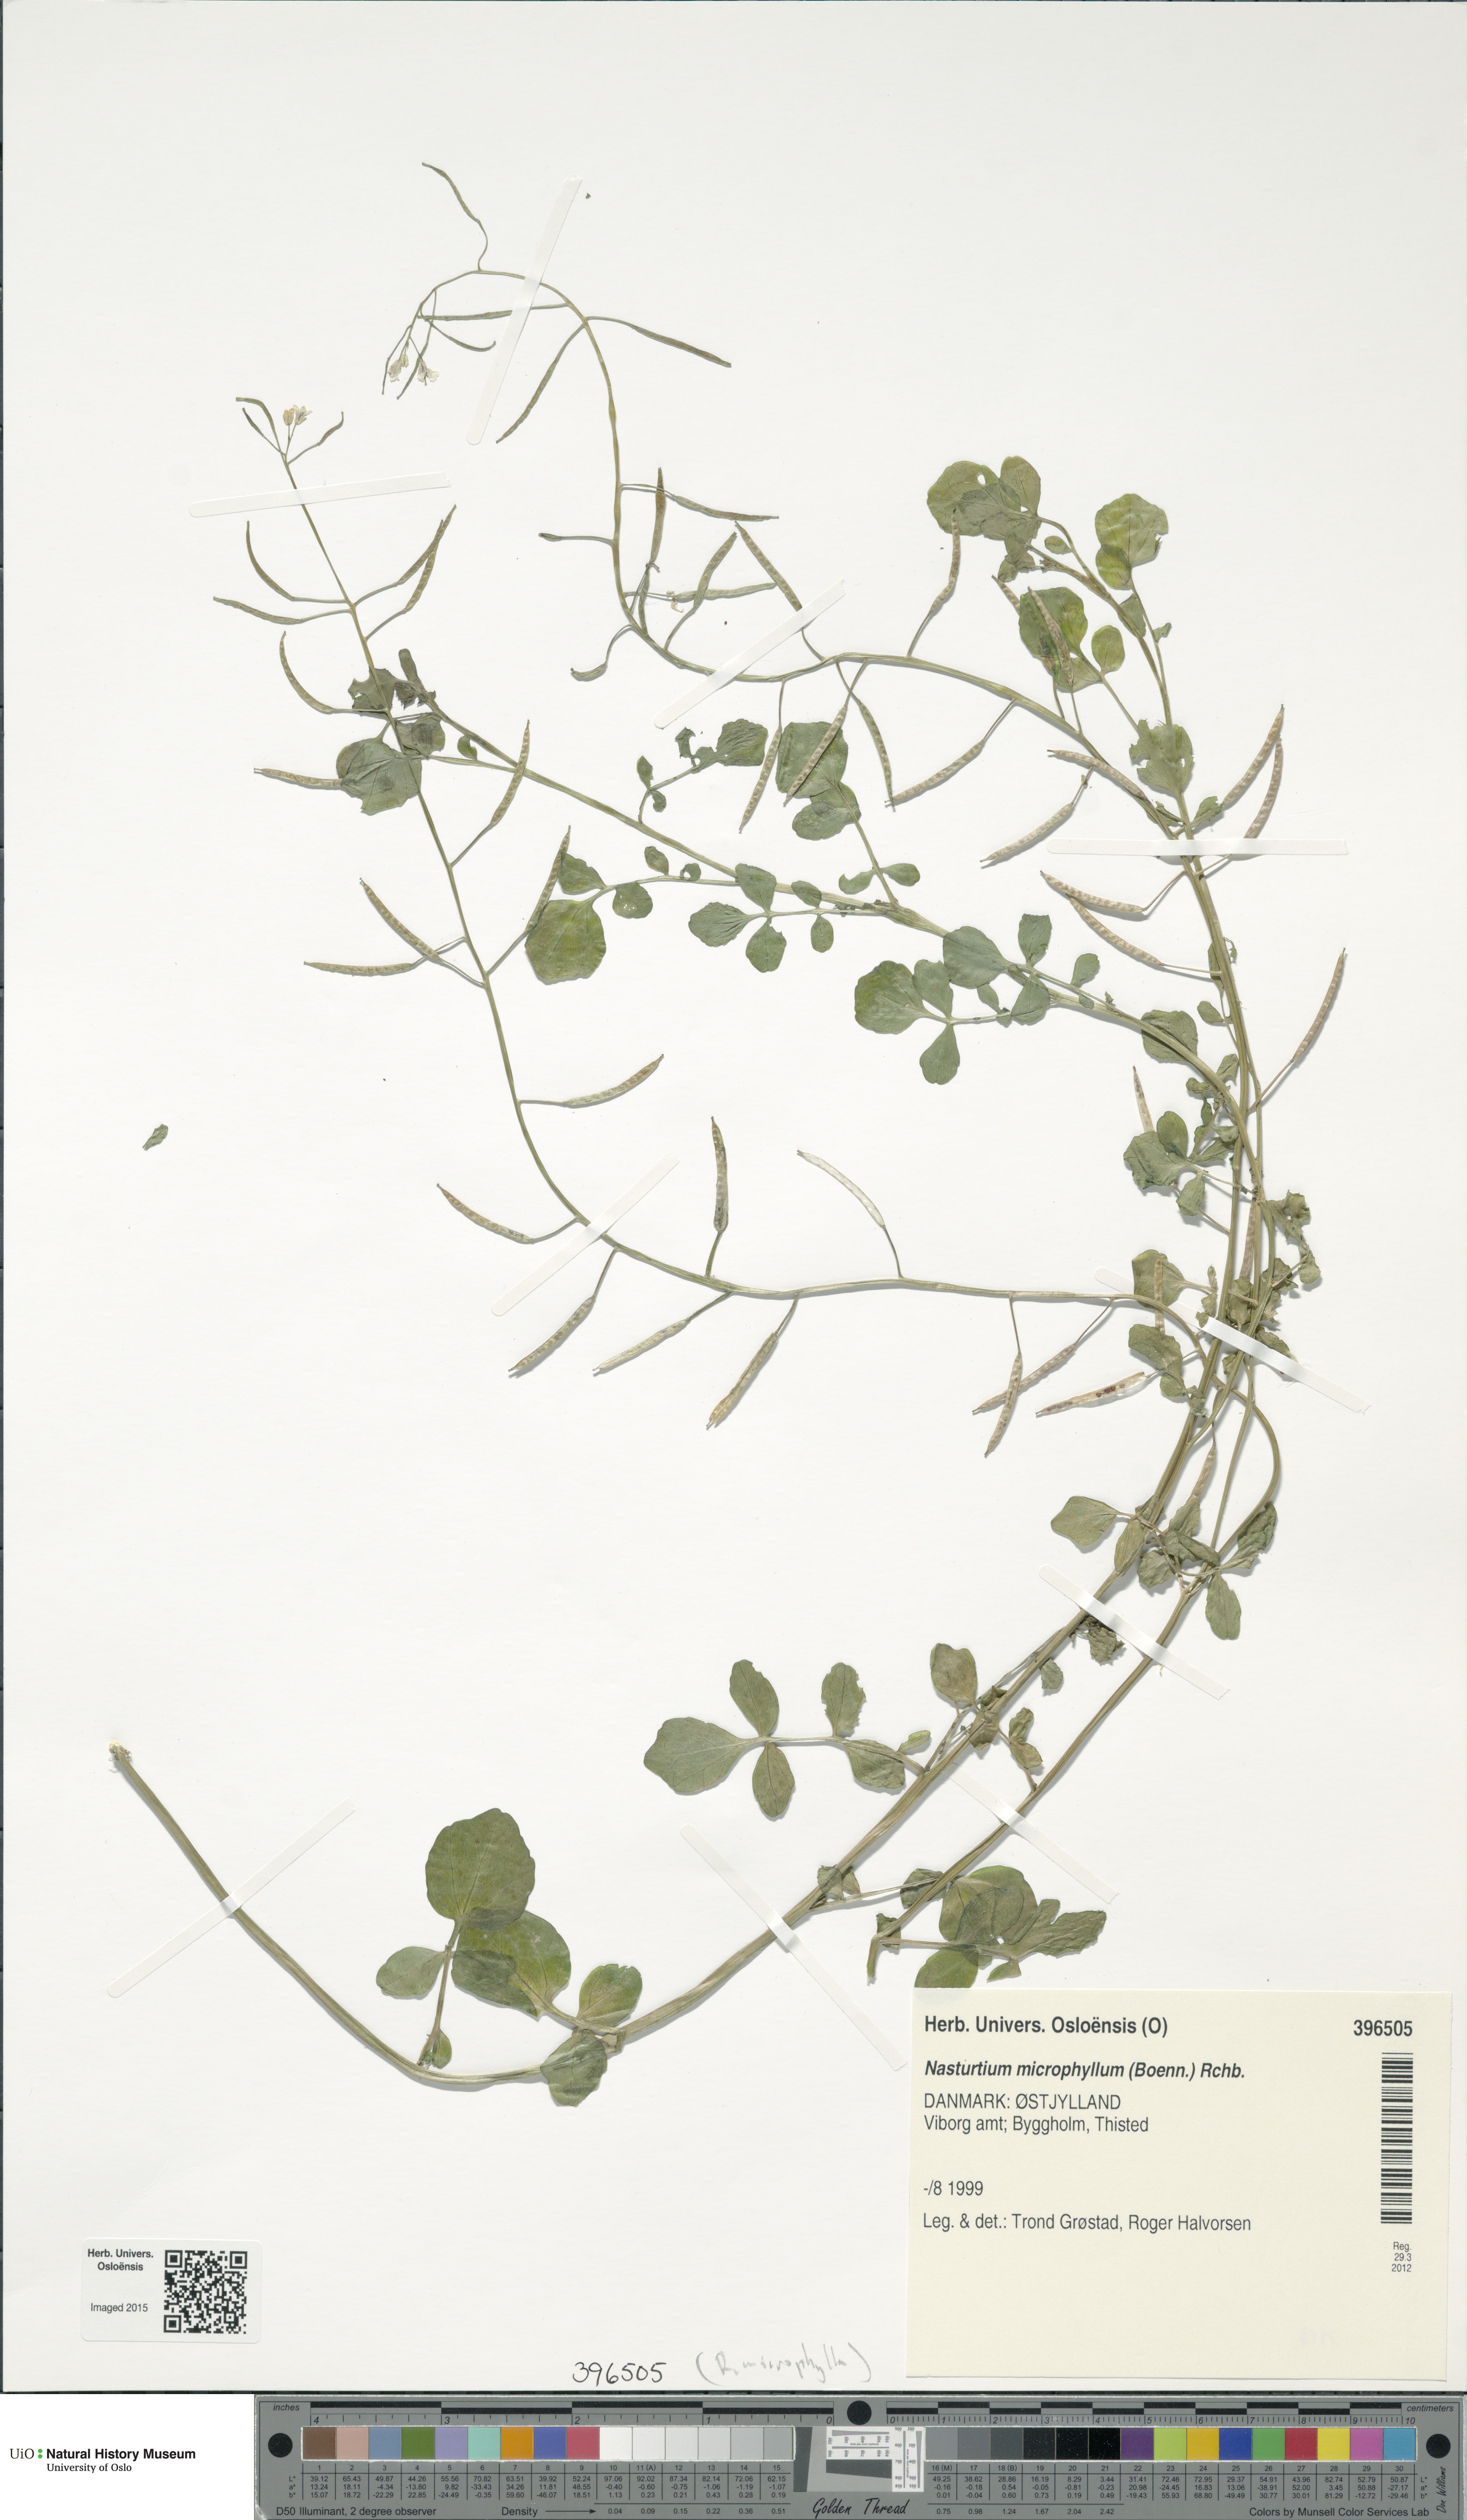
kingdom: Plantae
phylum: Tracheophyta
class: Magnoliopsida
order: Brassicales
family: Brassicaceae
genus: Nasturtium
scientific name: Nasturtium microphyllum
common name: Onerow yellowcress
